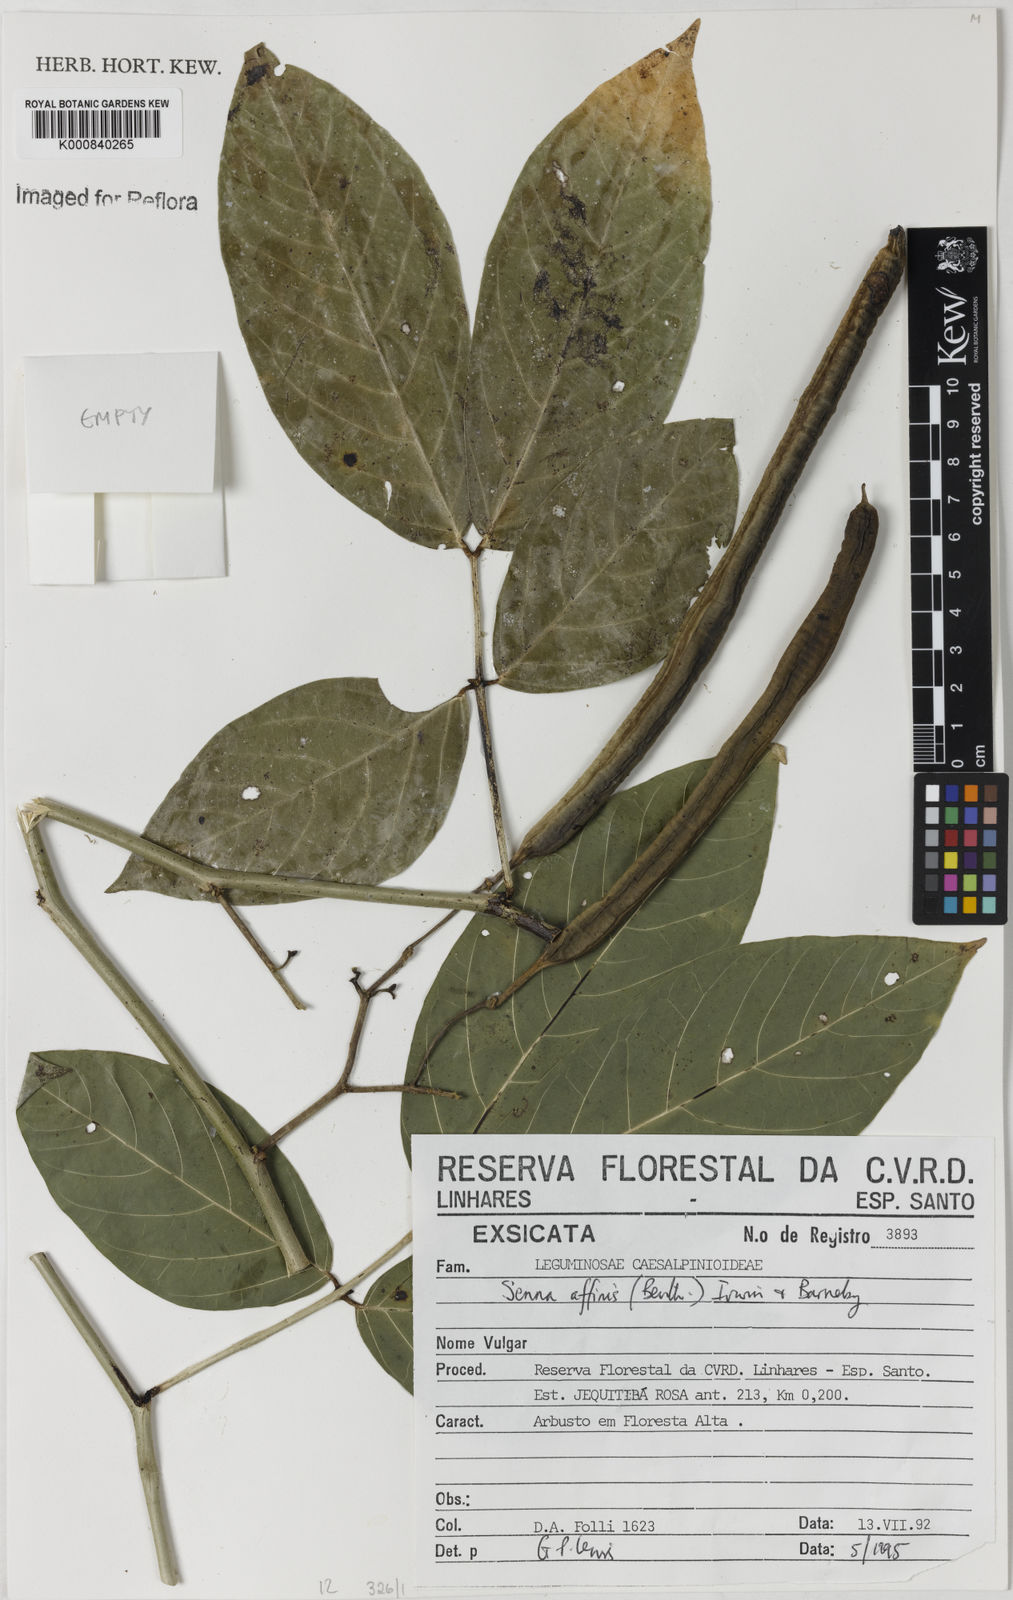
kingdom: Plantae
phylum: Tracheophyta
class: Magnoliopsida
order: Fabales
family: Fabaceae
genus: Senna
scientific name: Senna affinis
